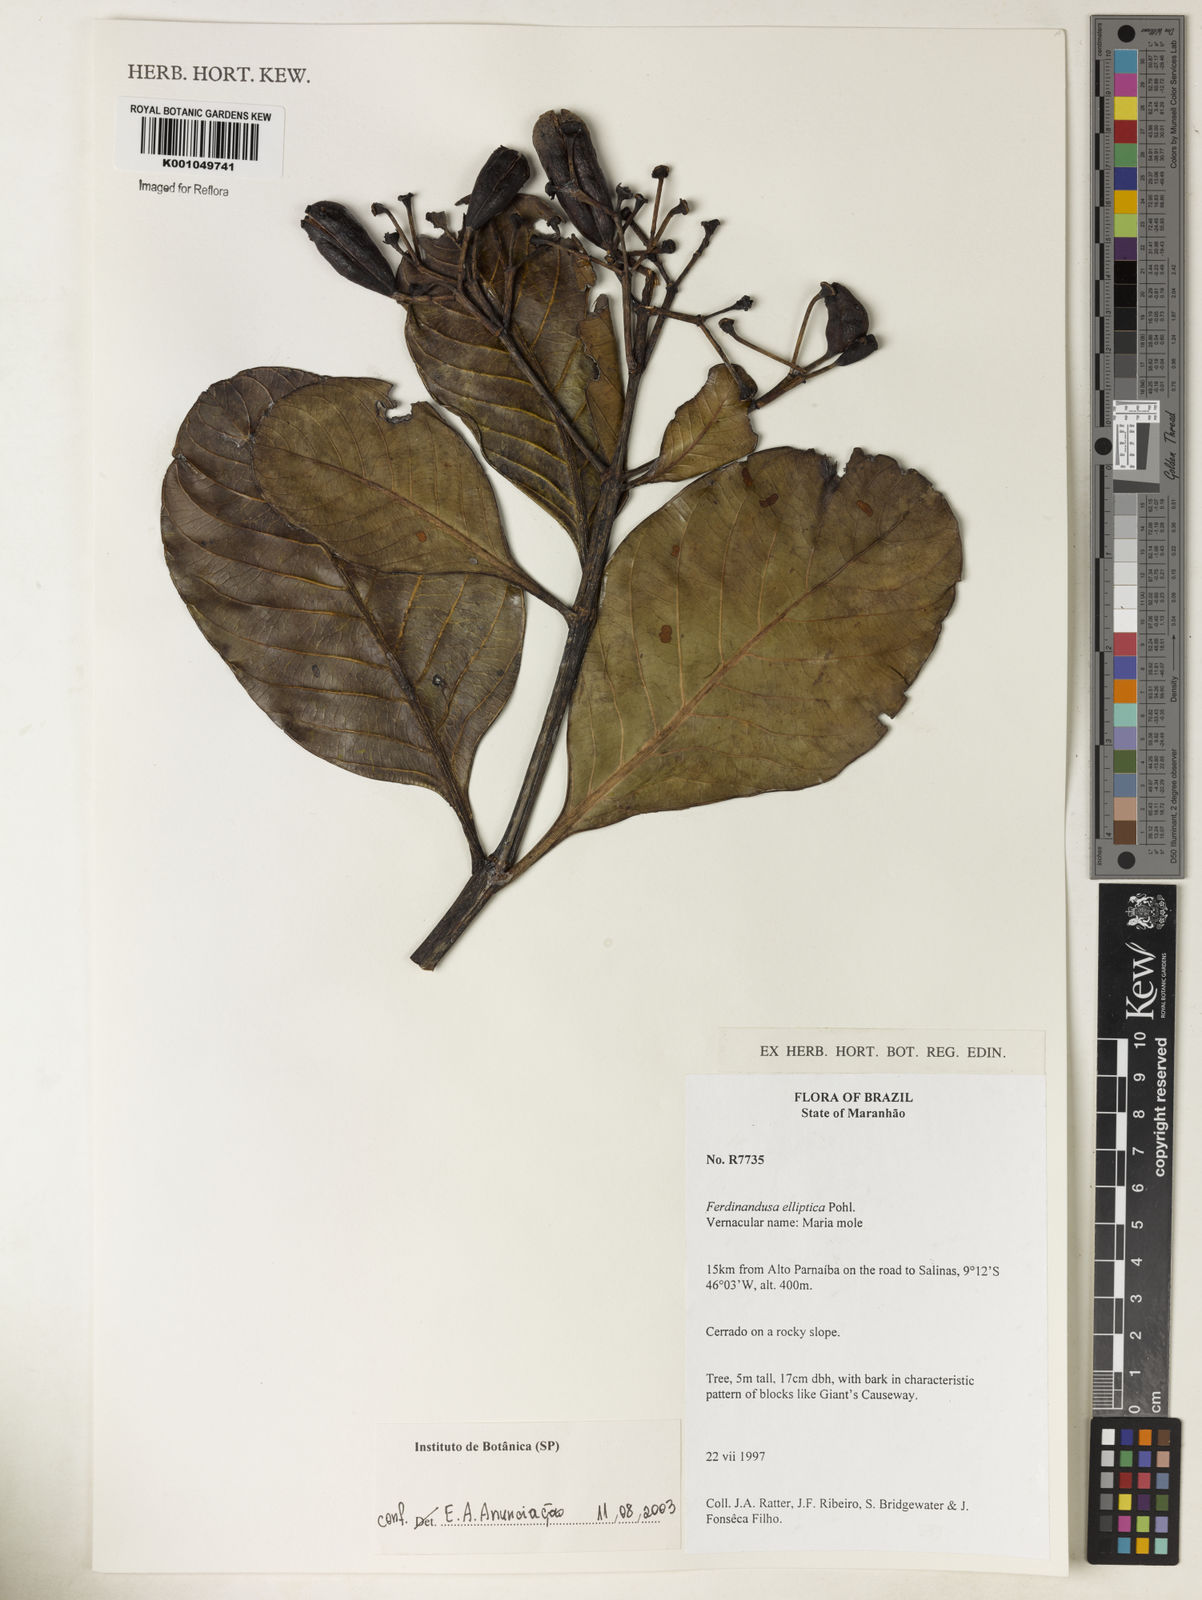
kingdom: Plantae
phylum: Tracheophyta
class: Magnoliopsida
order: Gentianales
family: Rubiaceae
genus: Ferdinandusa
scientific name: Ferdinandusa elliptica
